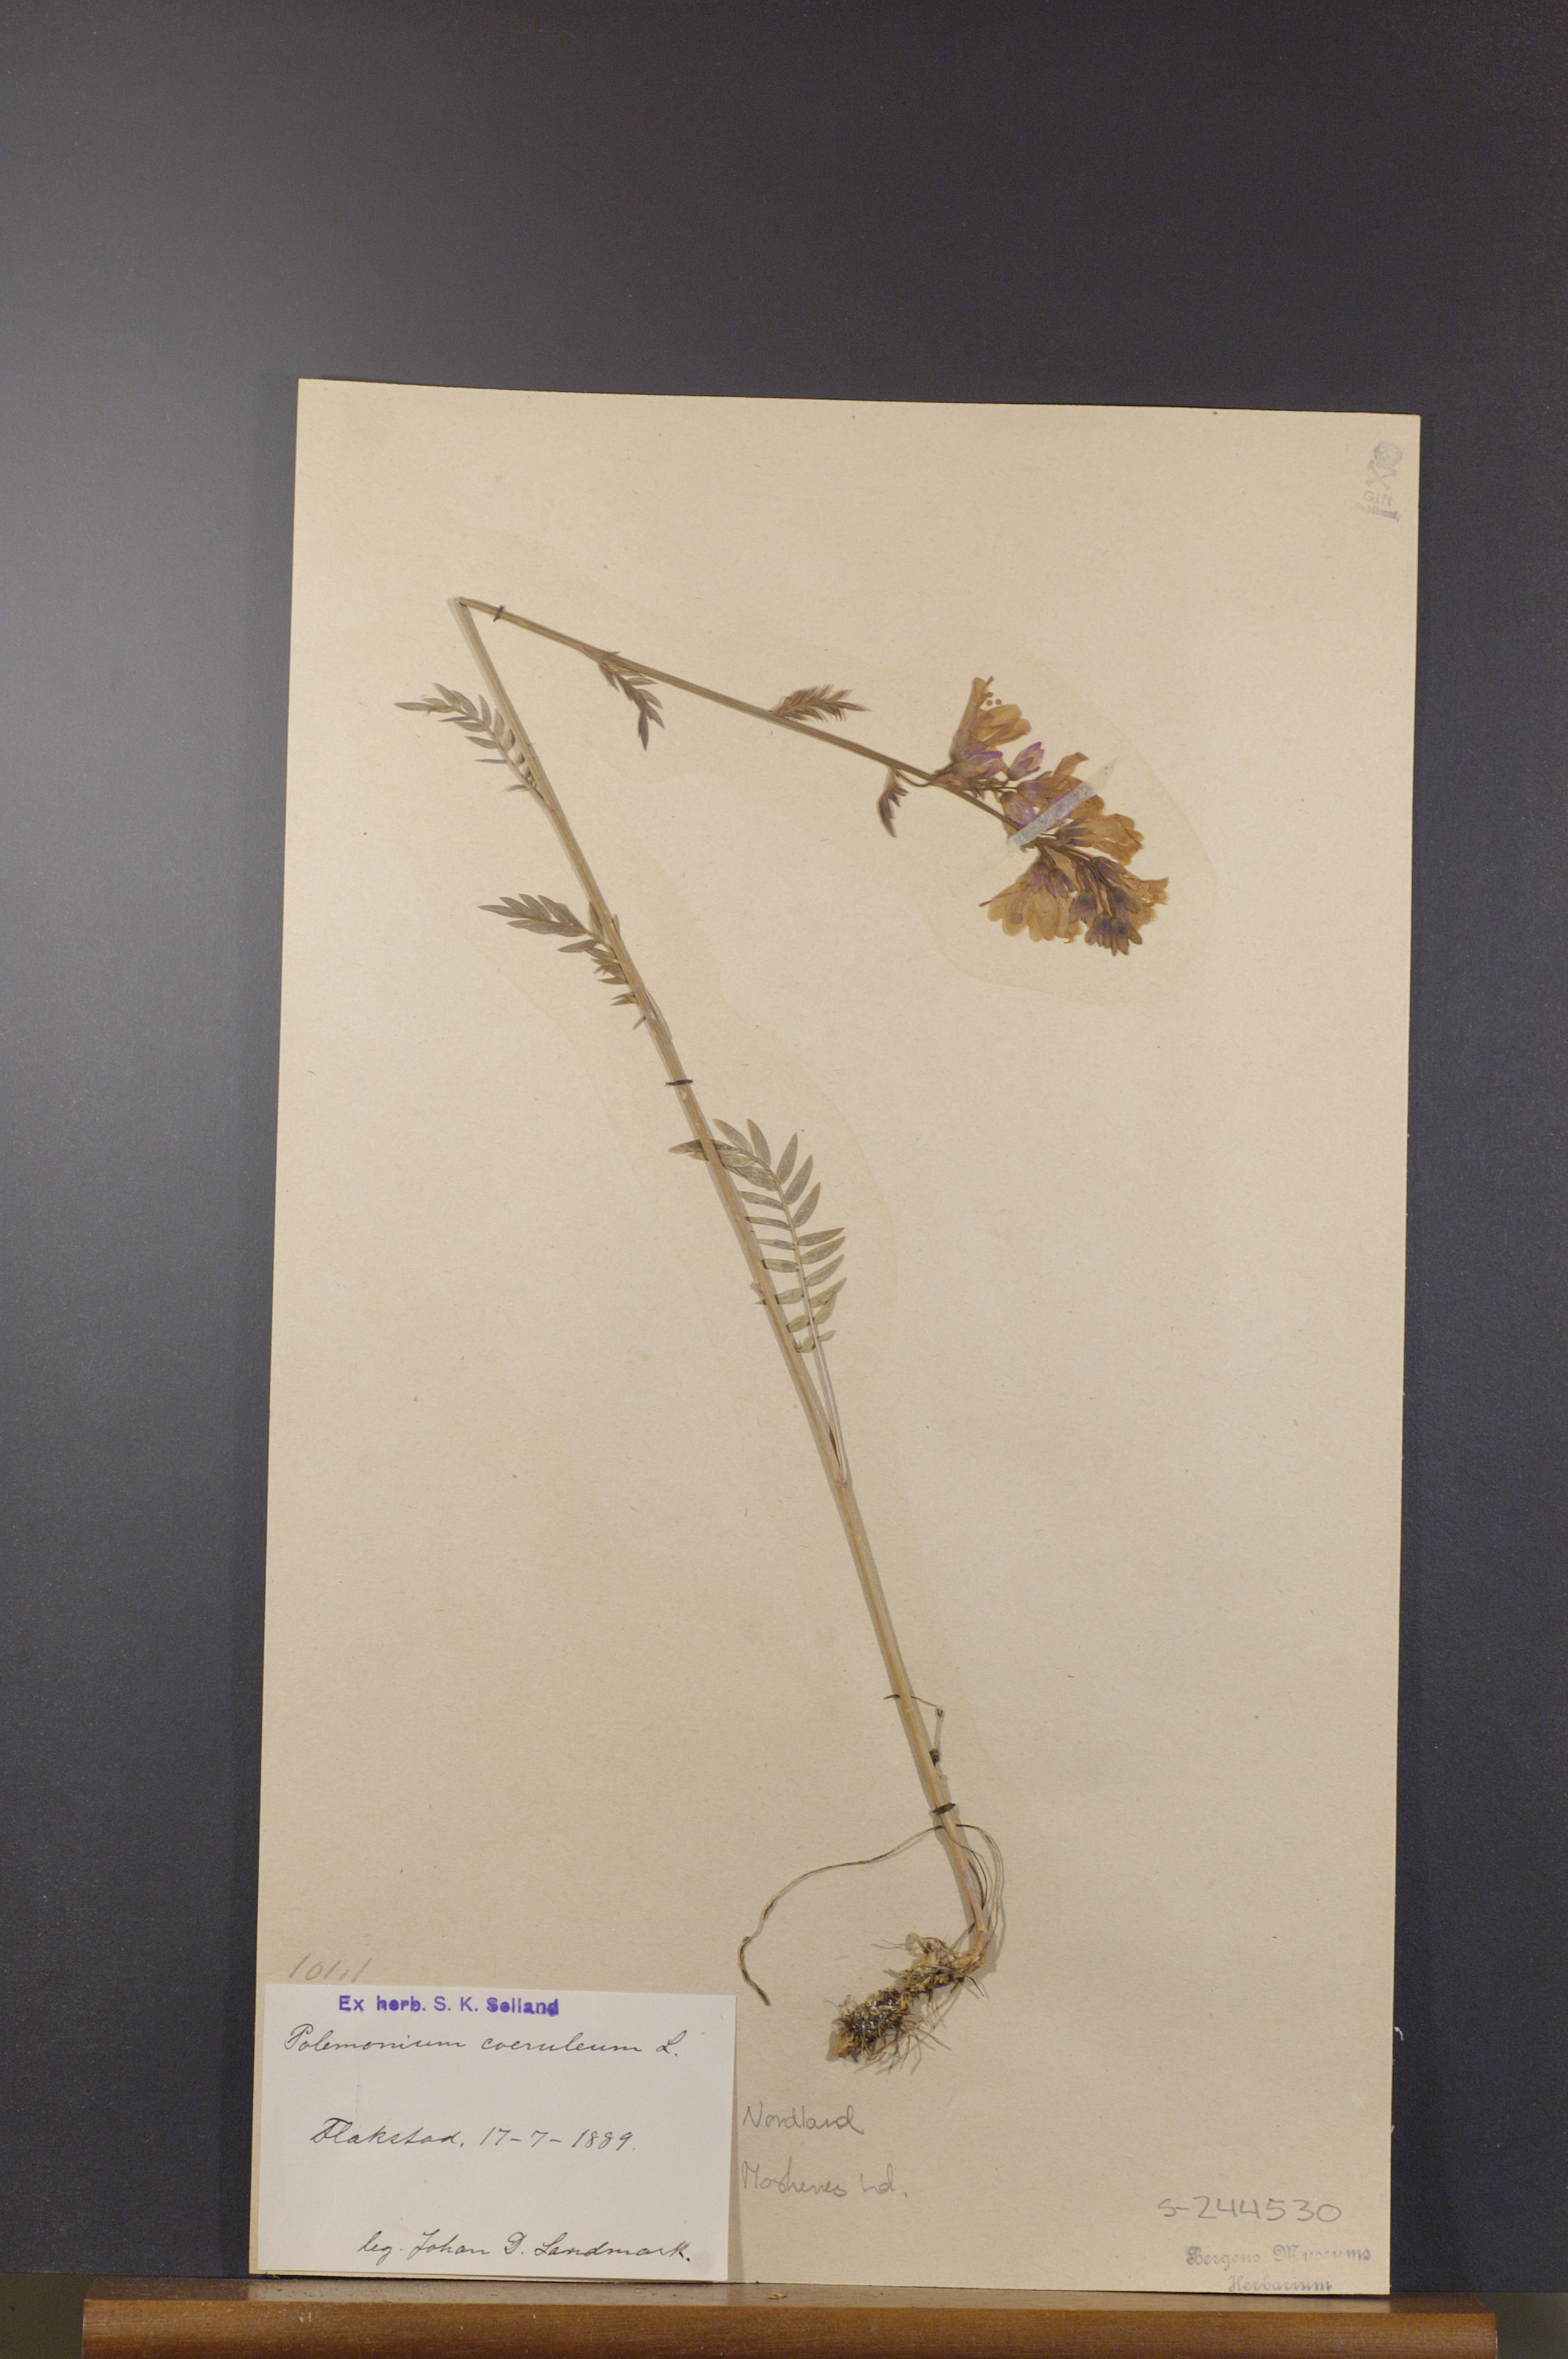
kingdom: Plantae
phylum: Tracheophyta
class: Magnoliopsida
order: Ericales
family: Polemoniaceae
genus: Polemonium
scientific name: Polemonium caeruleum
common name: Jacob's-ladder
